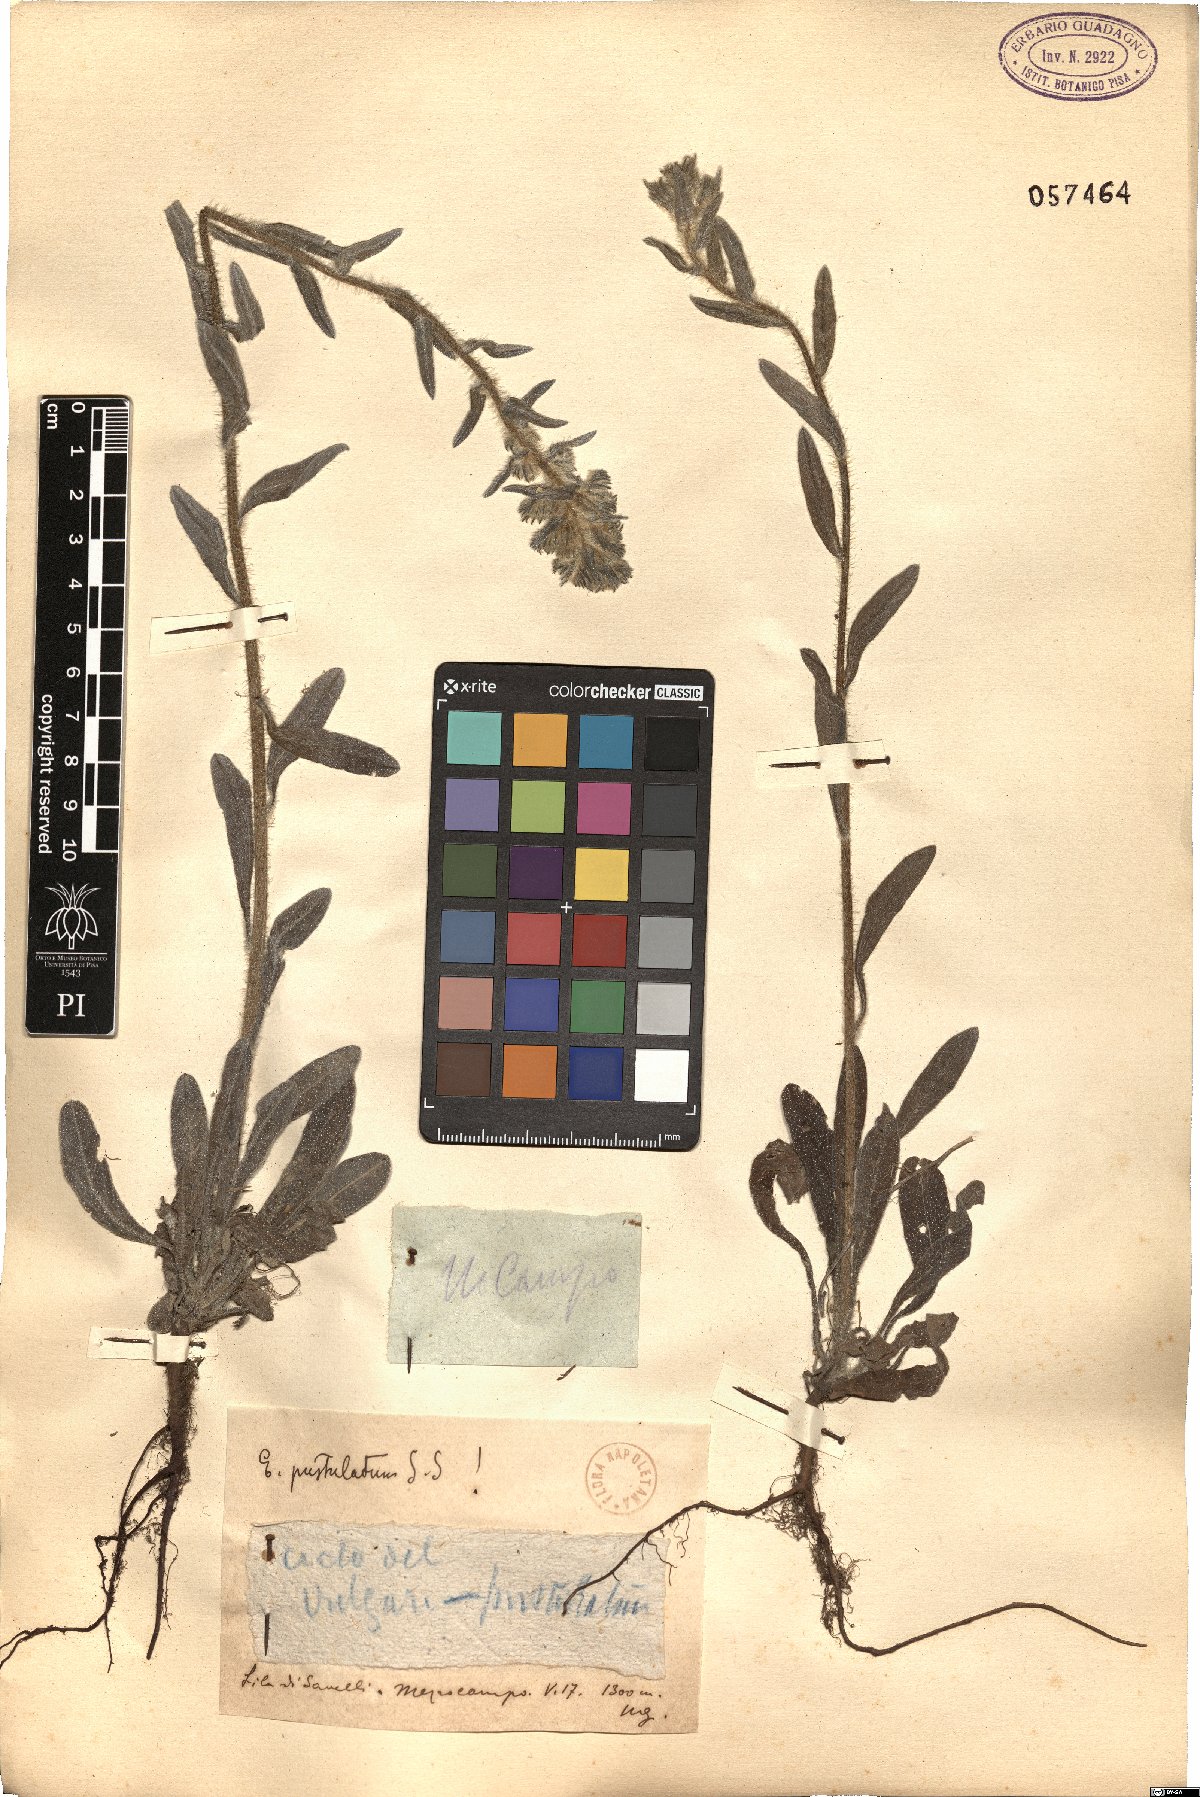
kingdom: Plantae
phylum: Tracheophyta
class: Magnoliopsida
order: Boraginales
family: Boraginaceae
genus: Echium
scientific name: Echium vulgare
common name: Common viper's bugloss
